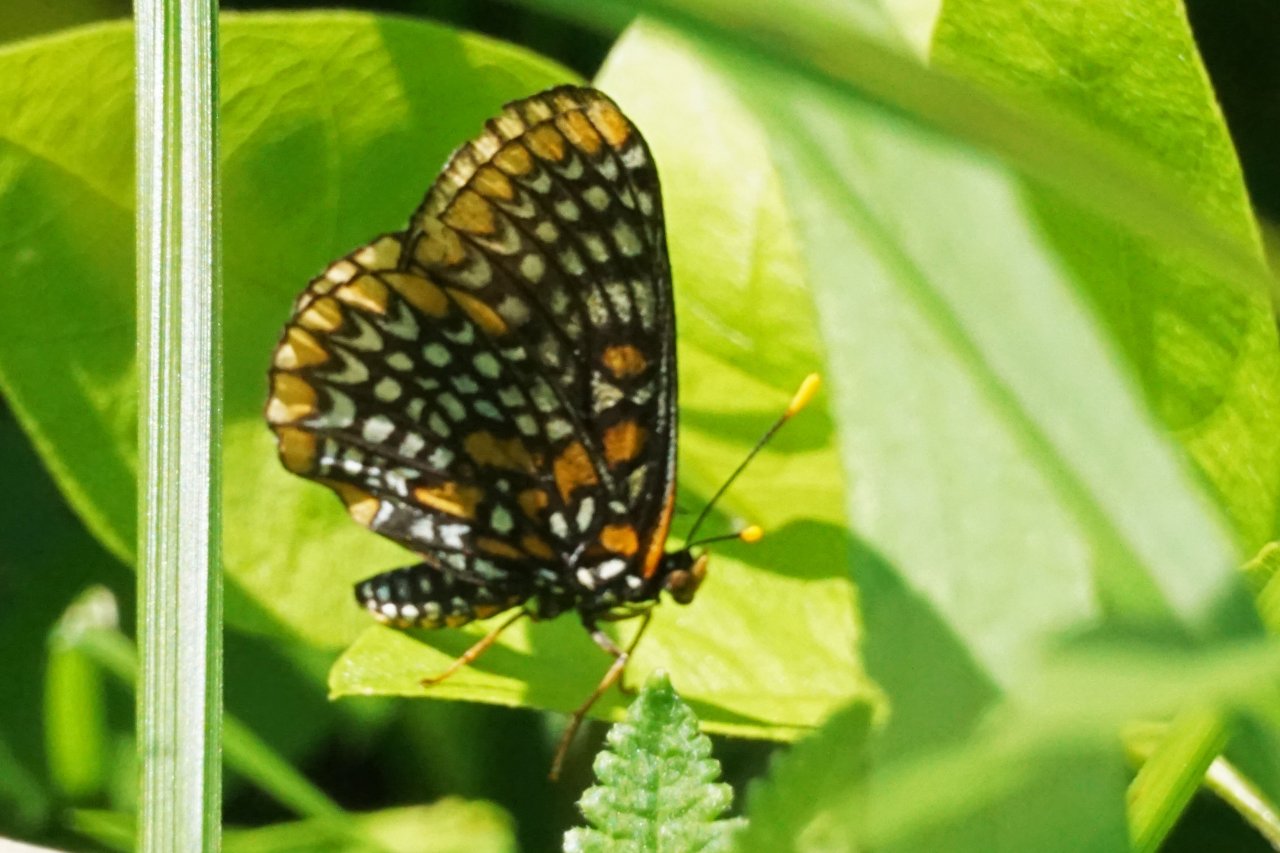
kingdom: Animalia
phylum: Arthropoda
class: Insecta
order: Lepidoptera
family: Nymphalidae
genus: Euphydryas
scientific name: Euphydryas phaeton
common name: Baltimore Checkerspot
